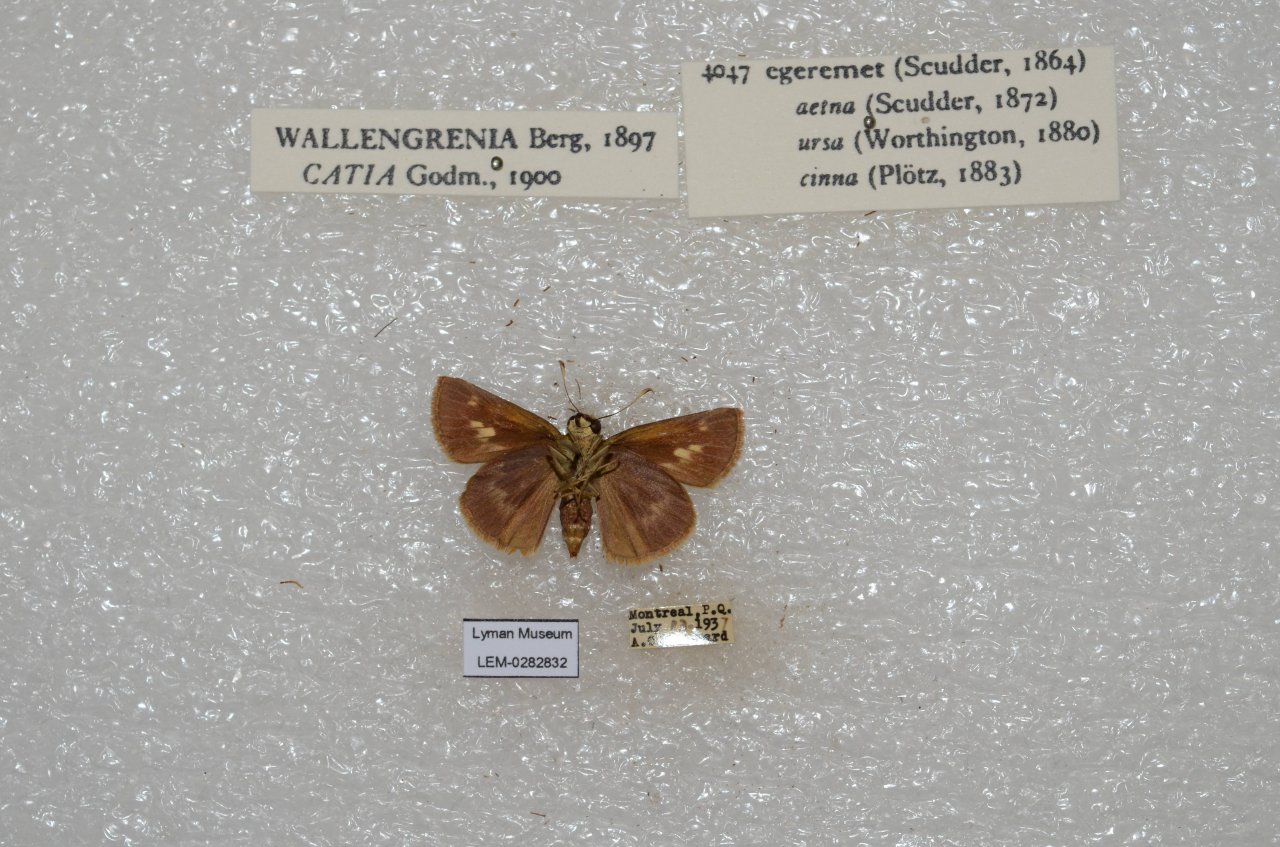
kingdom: Animalia
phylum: Arthropoda
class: Insecta
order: Lepidoptera
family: Hesperiidae
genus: Polites
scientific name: Polites egeremet
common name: Northern Broken-Dash
